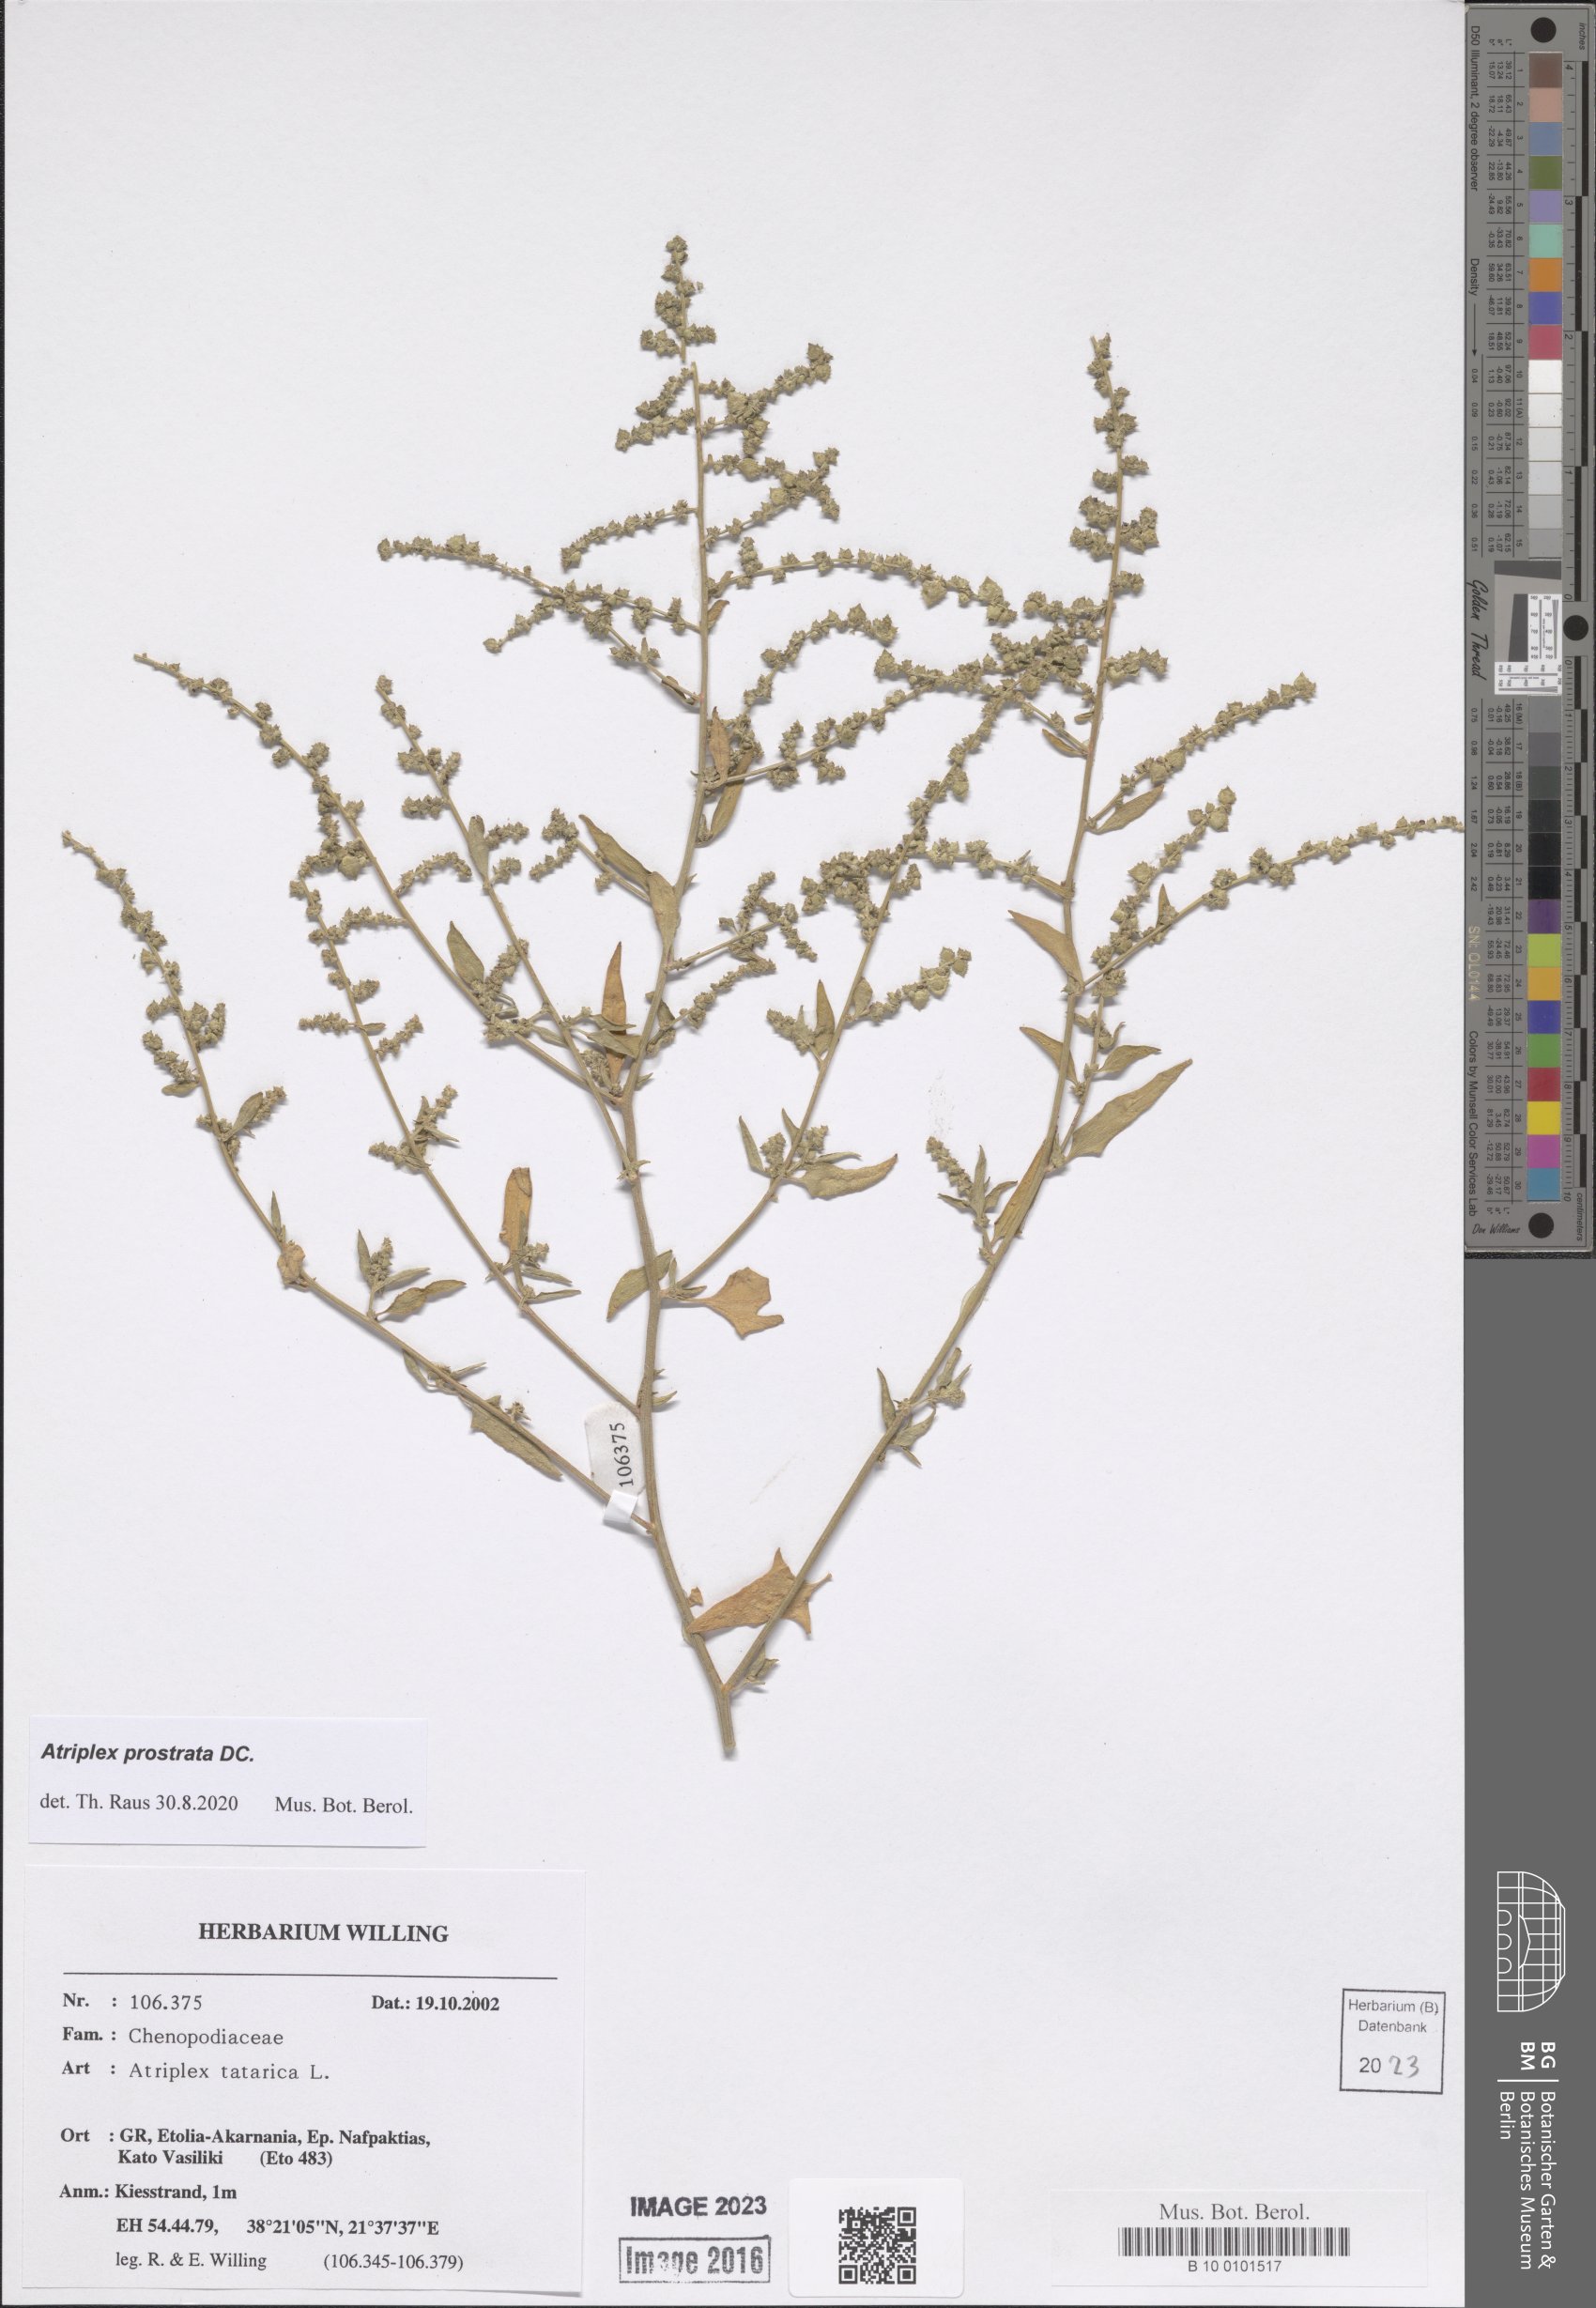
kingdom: Plantae
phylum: Tracheophyta
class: Magnoliopsida
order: Caryophyllales
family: Amaranthaceae
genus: Atriplex
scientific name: Atriplex prostrata
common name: Spear-leaved orache
